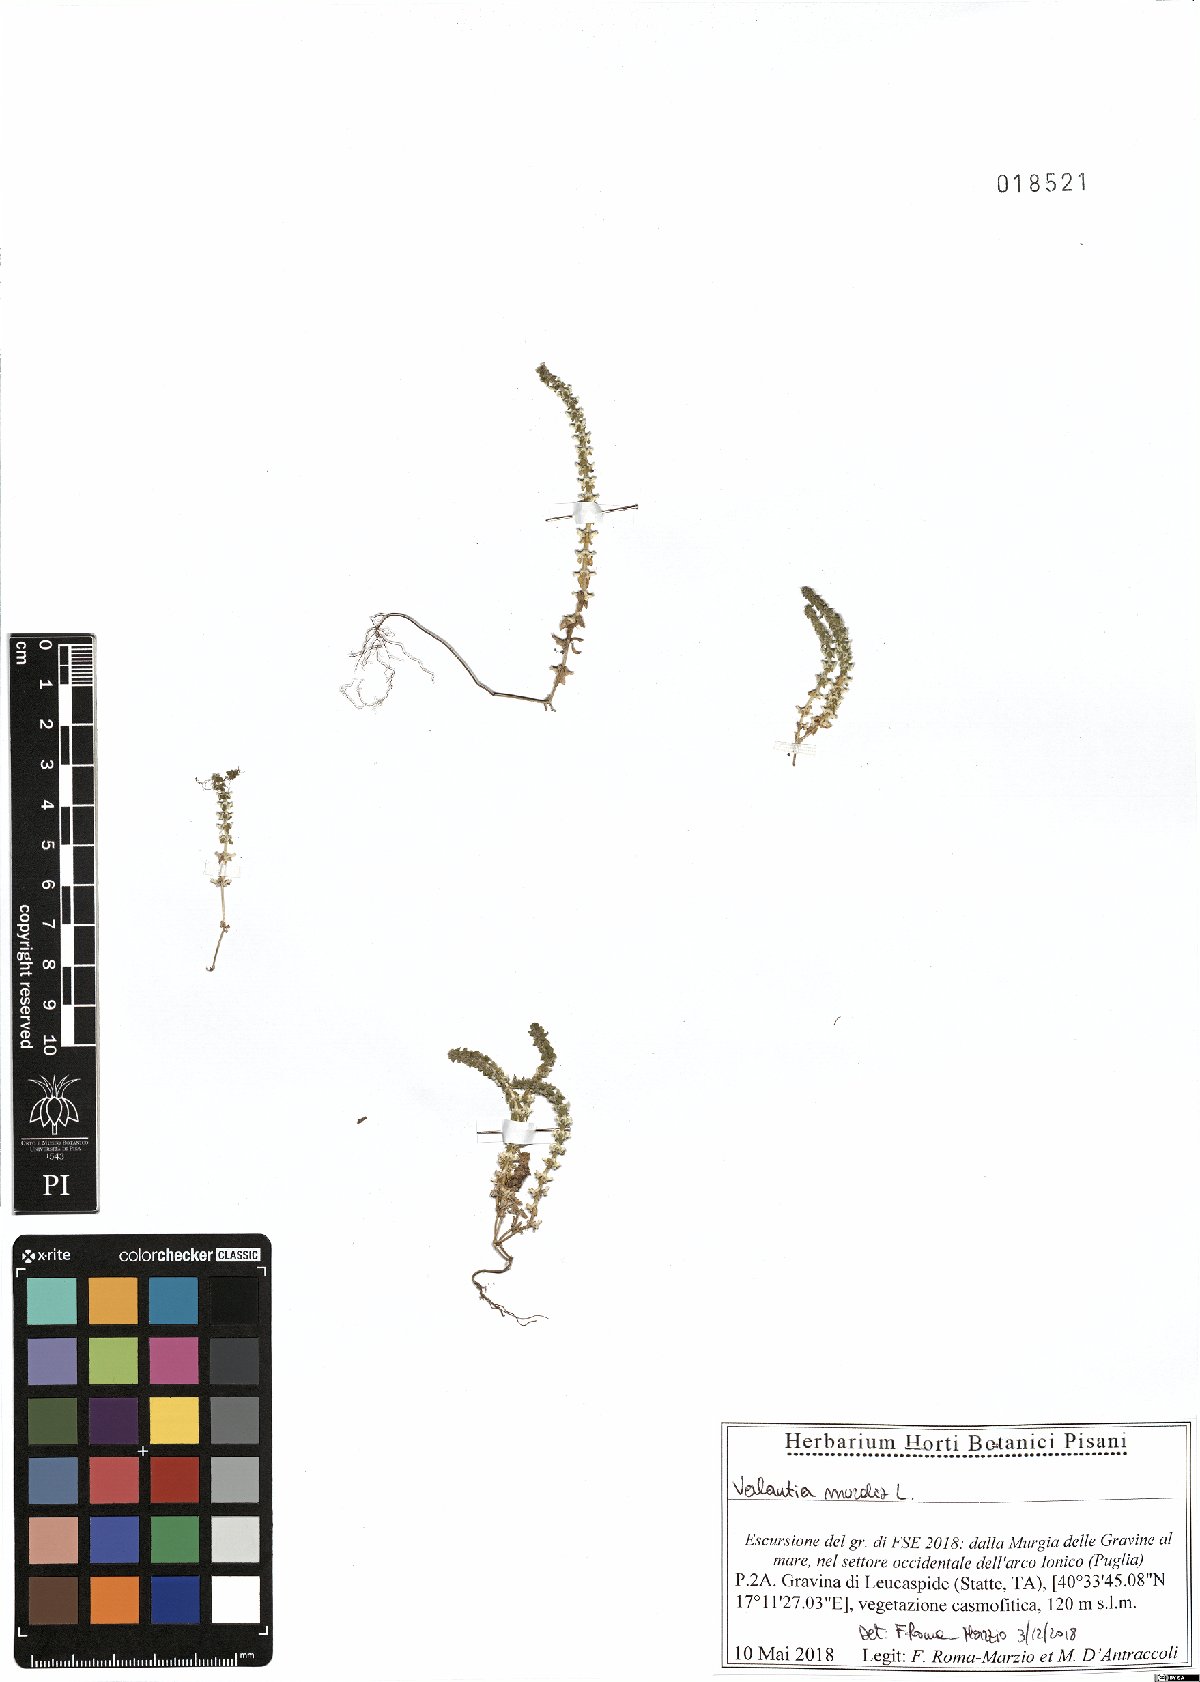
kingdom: Plantae
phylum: Tracheophyta
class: Magnoliopsida
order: Gentianales
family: Rubiaceae
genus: Valantia
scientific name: Valantia muralis
